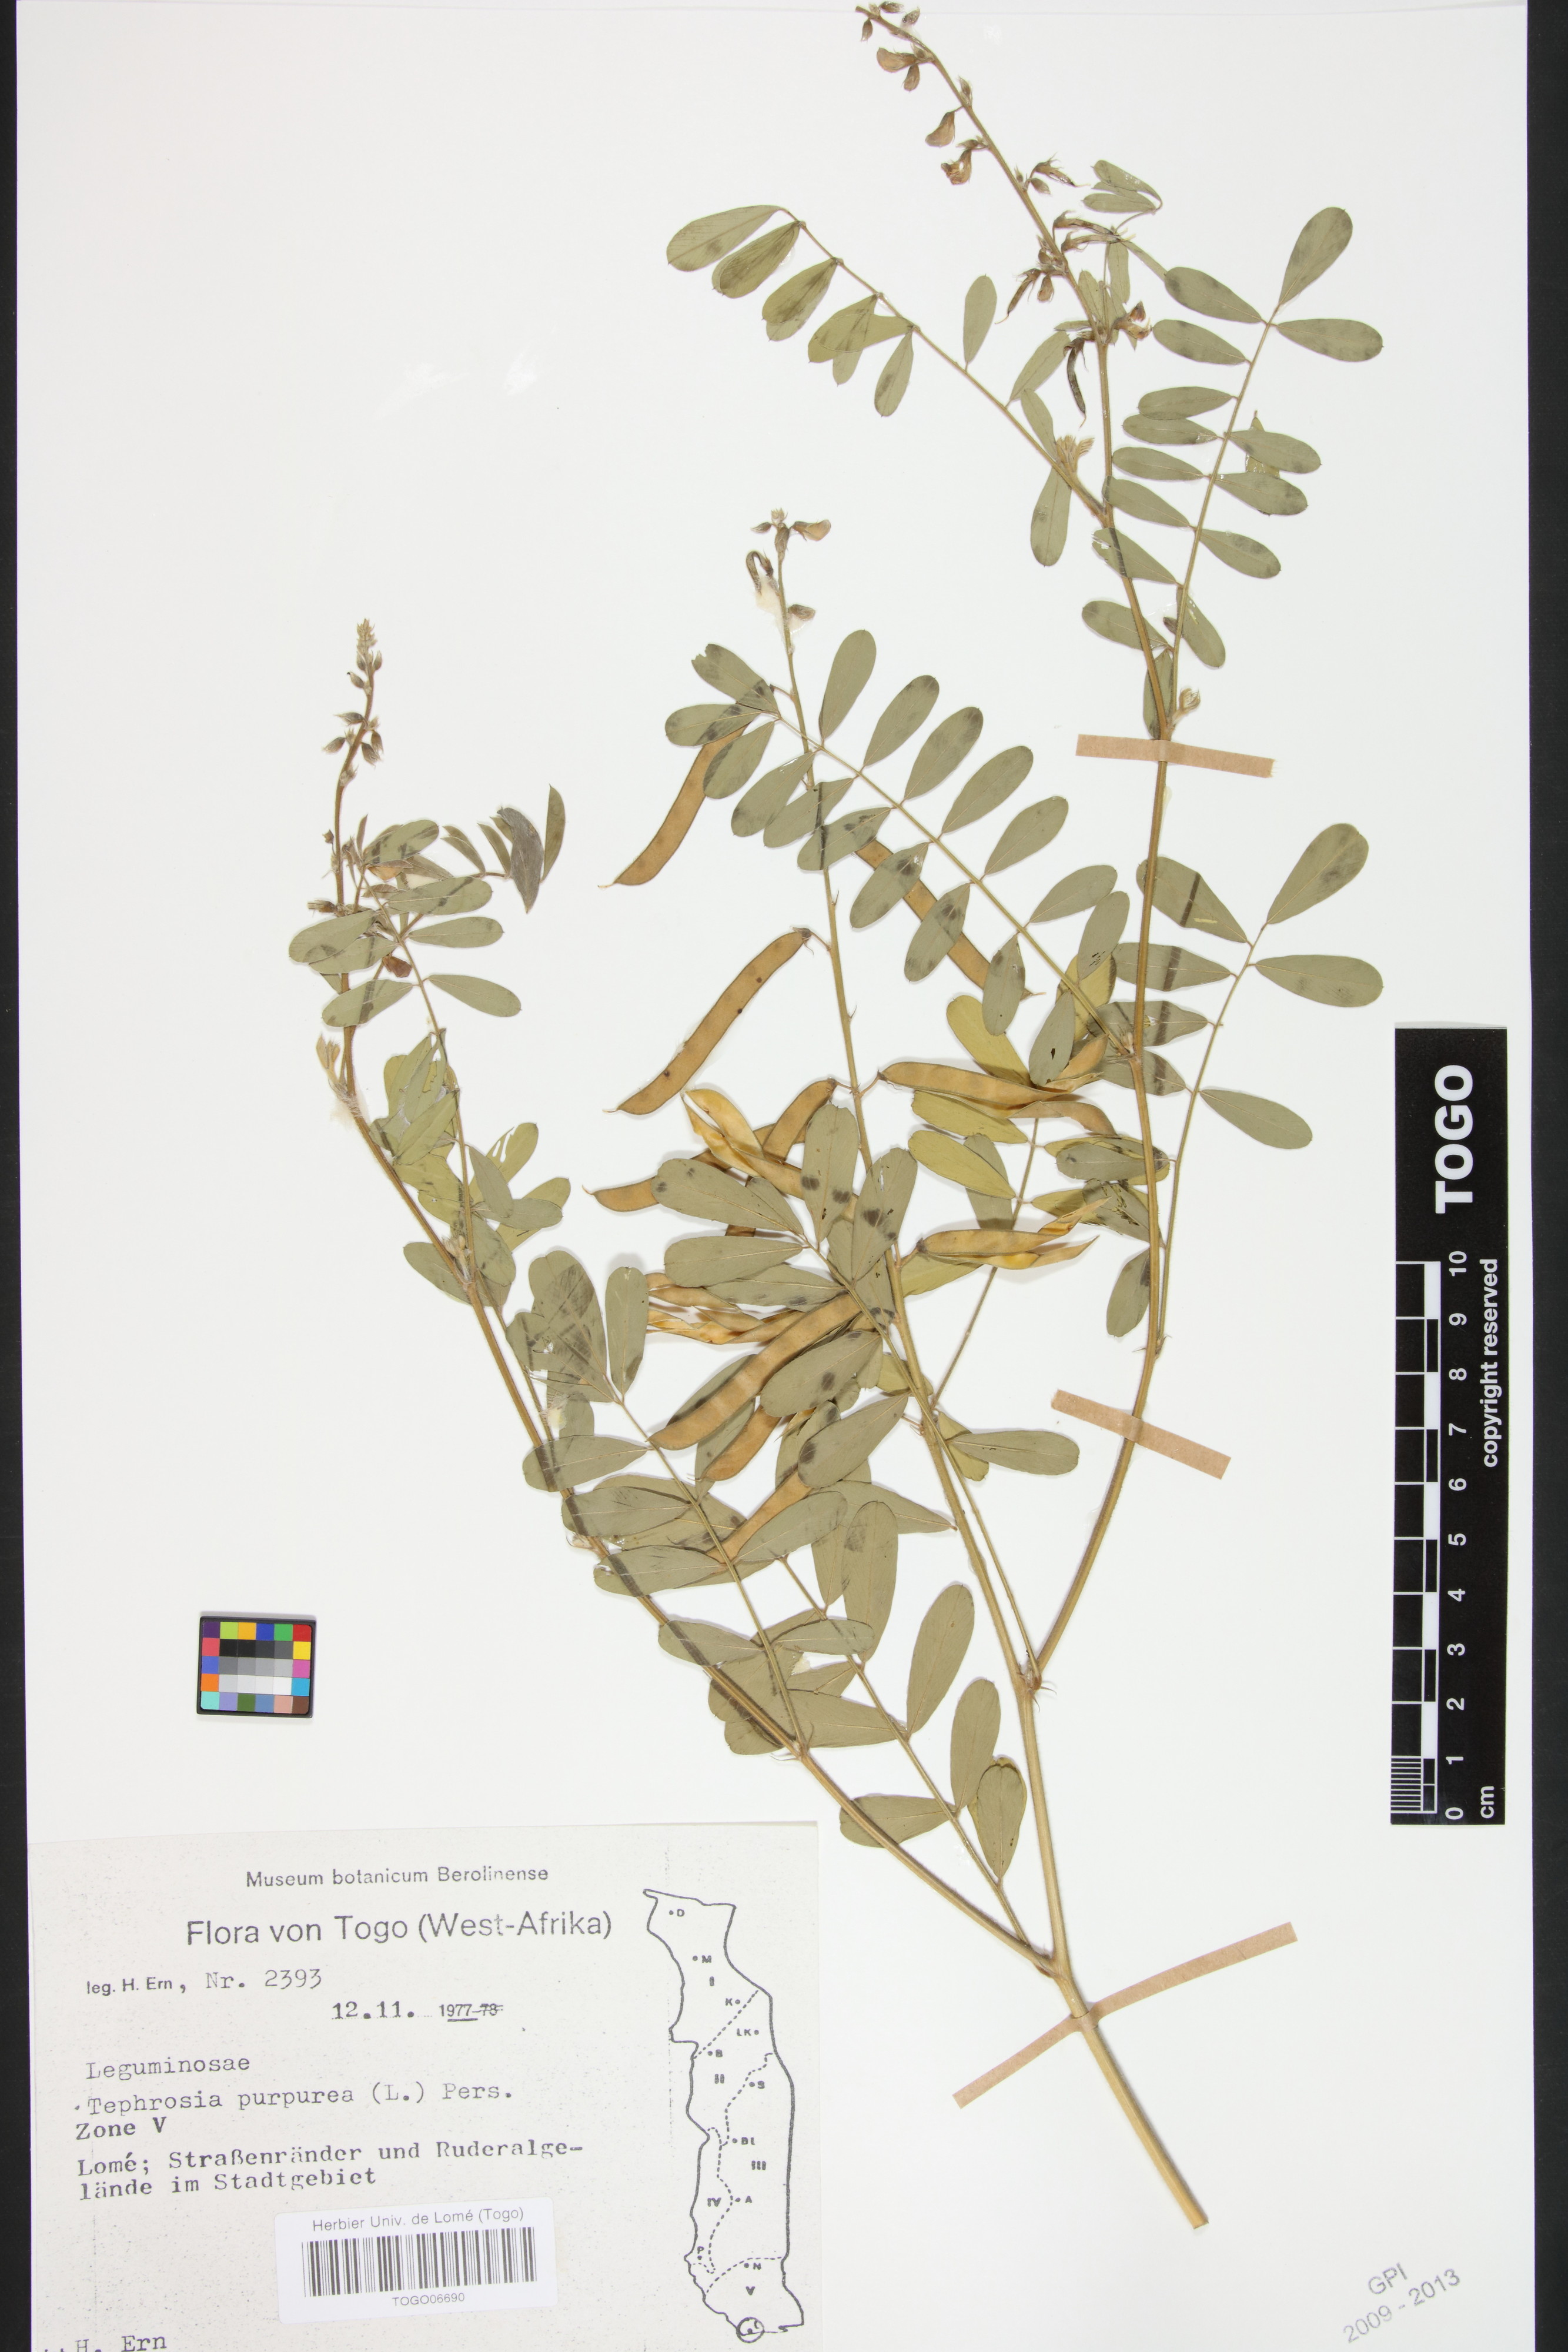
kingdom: Plantae
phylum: Tracheophyta
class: Magnoliopsida
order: Fabales
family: Fabaceae
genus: Tephrosia
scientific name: Tephrosia purpurea
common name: Fishpoison
